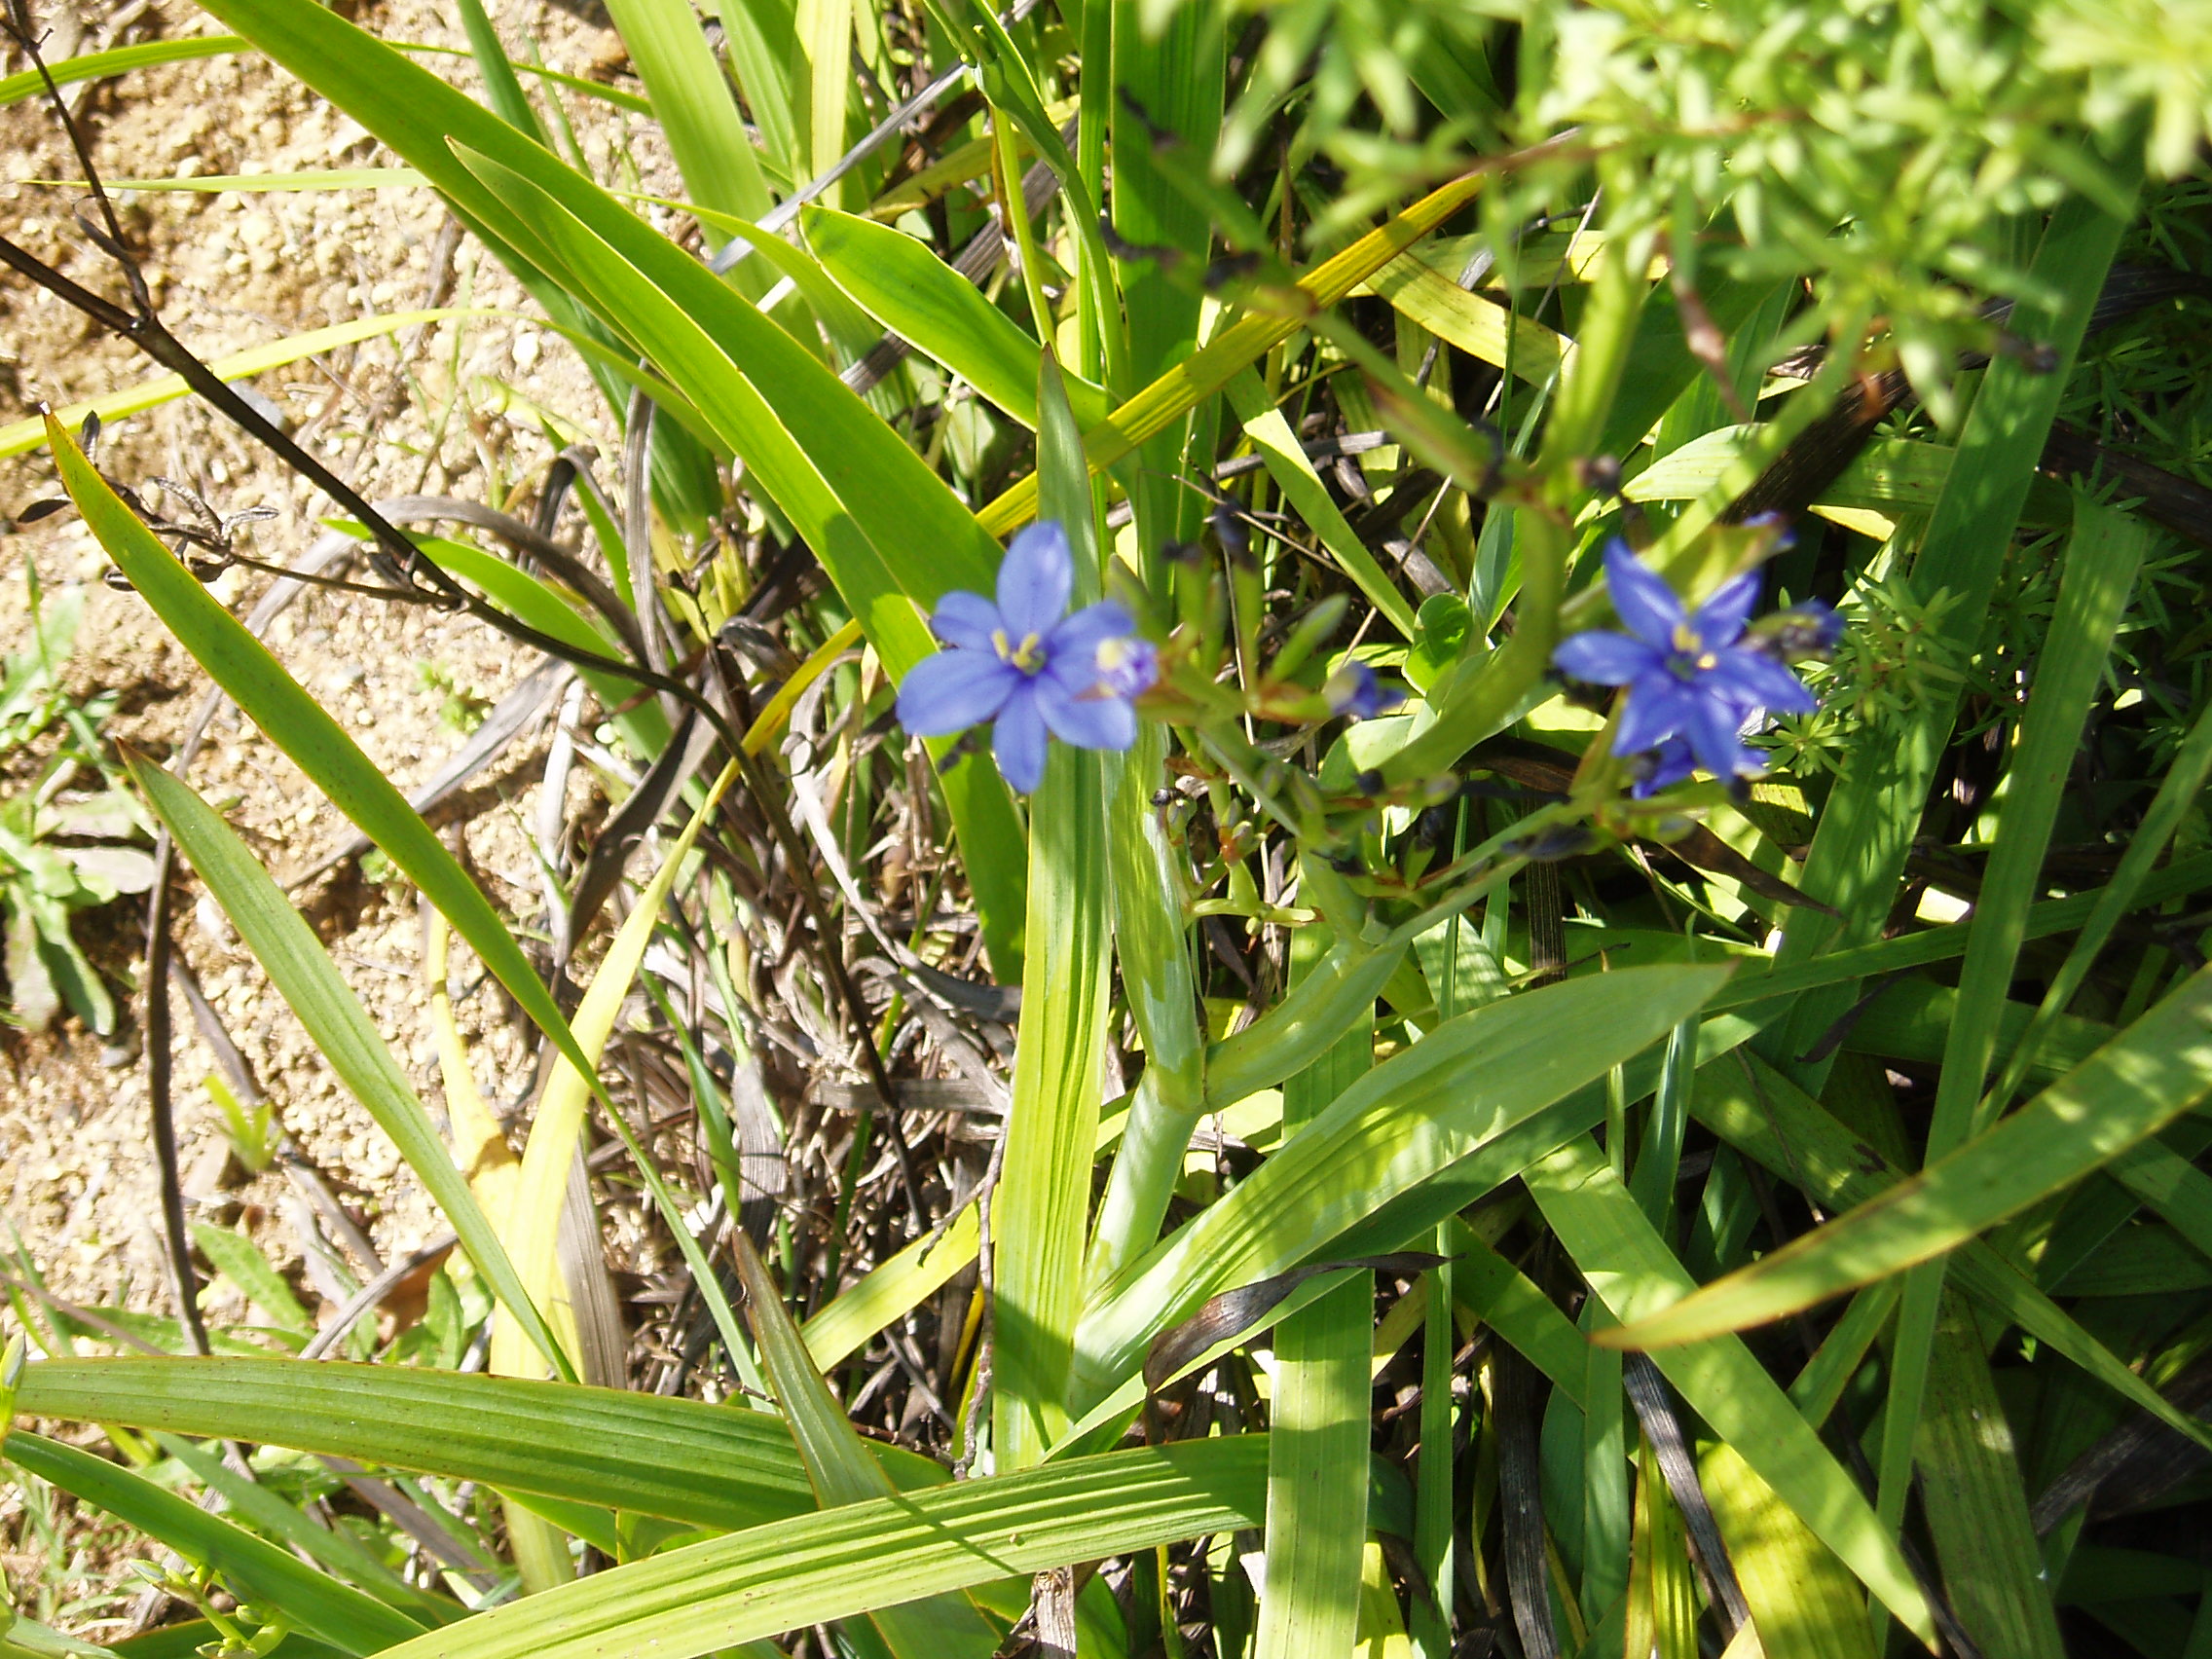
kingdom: Plantae
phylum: Tracheophyta
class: Liliopsida
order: Asparagales
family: Iridaceae
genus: Aristea
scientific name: Aristea ecklonii
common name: Blue corn-lily
